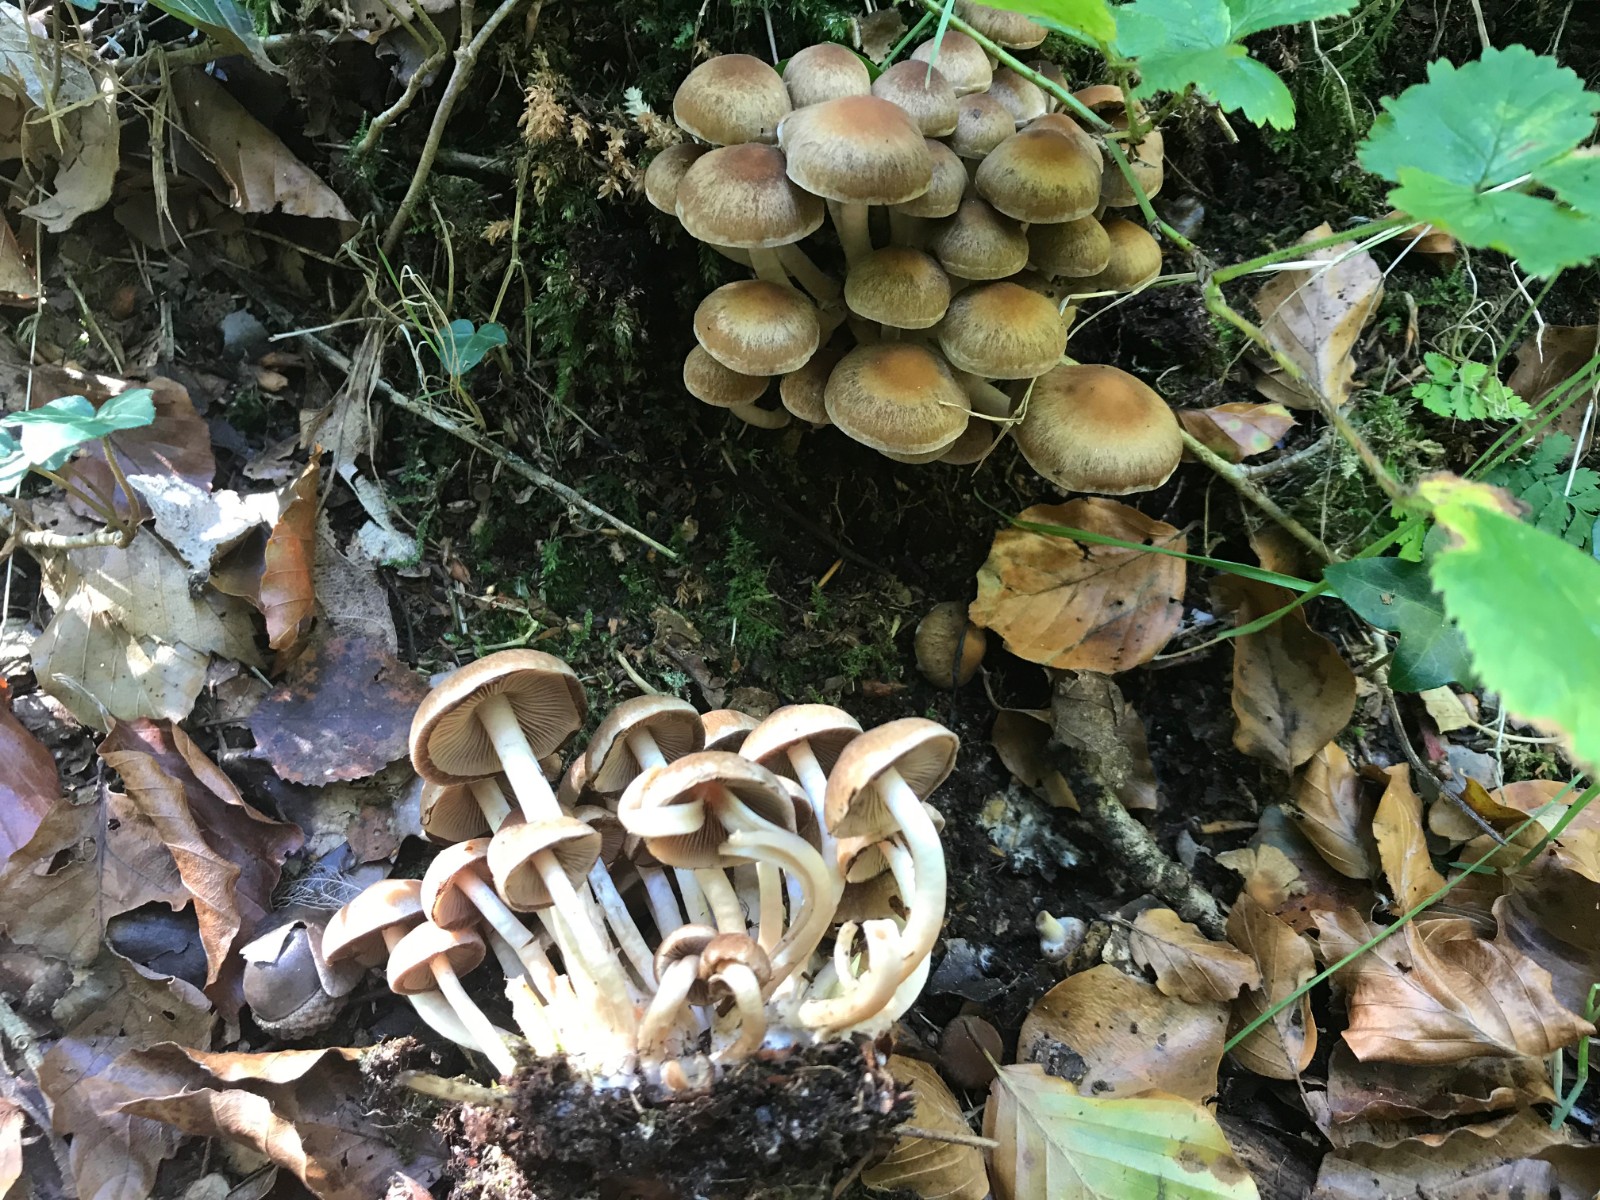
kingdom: Fungi
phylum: Basidiomycota
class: Agaricomycetes
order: Agaricales
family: Psathyrellaceae
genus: Psathyrella
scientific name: Psathyrella piluliformis
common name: lysstokket mørkhat
